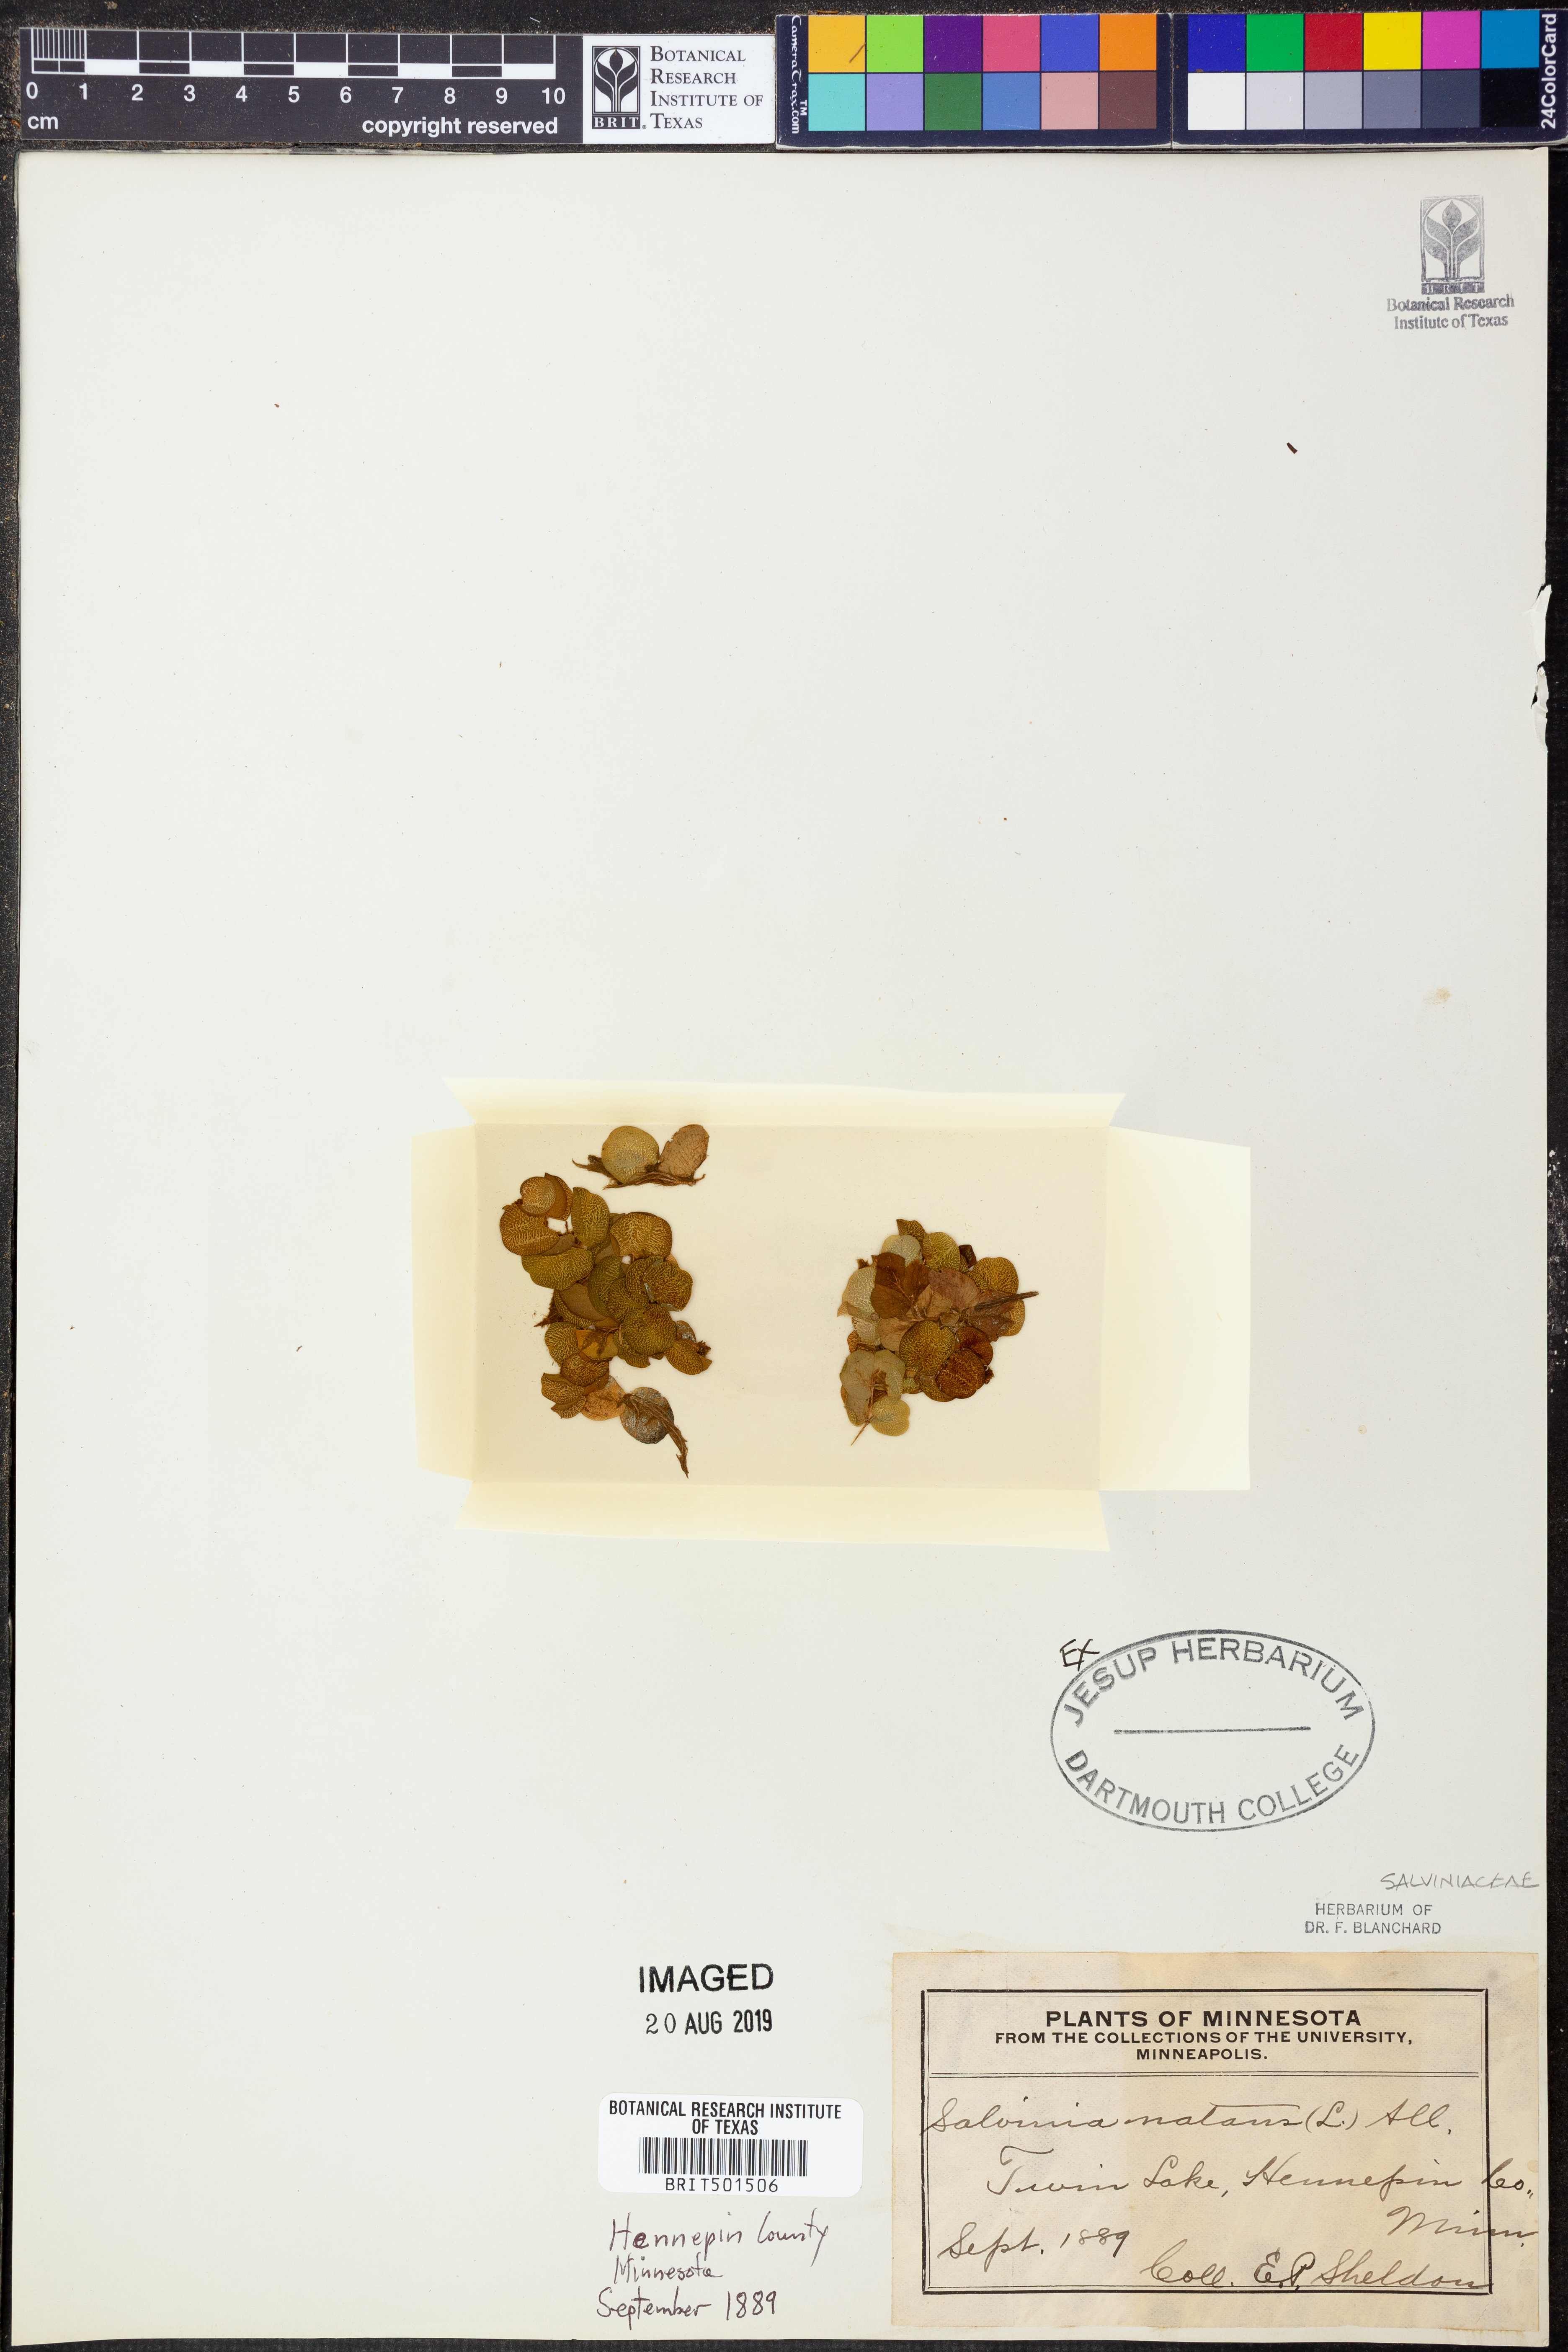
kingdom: Plantae
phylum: Tracheophyta
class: Polypodiopsida
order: Salviniales
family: Salviniaceae
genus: Salvinia
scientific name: Salvinia natans
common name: Floating fern
